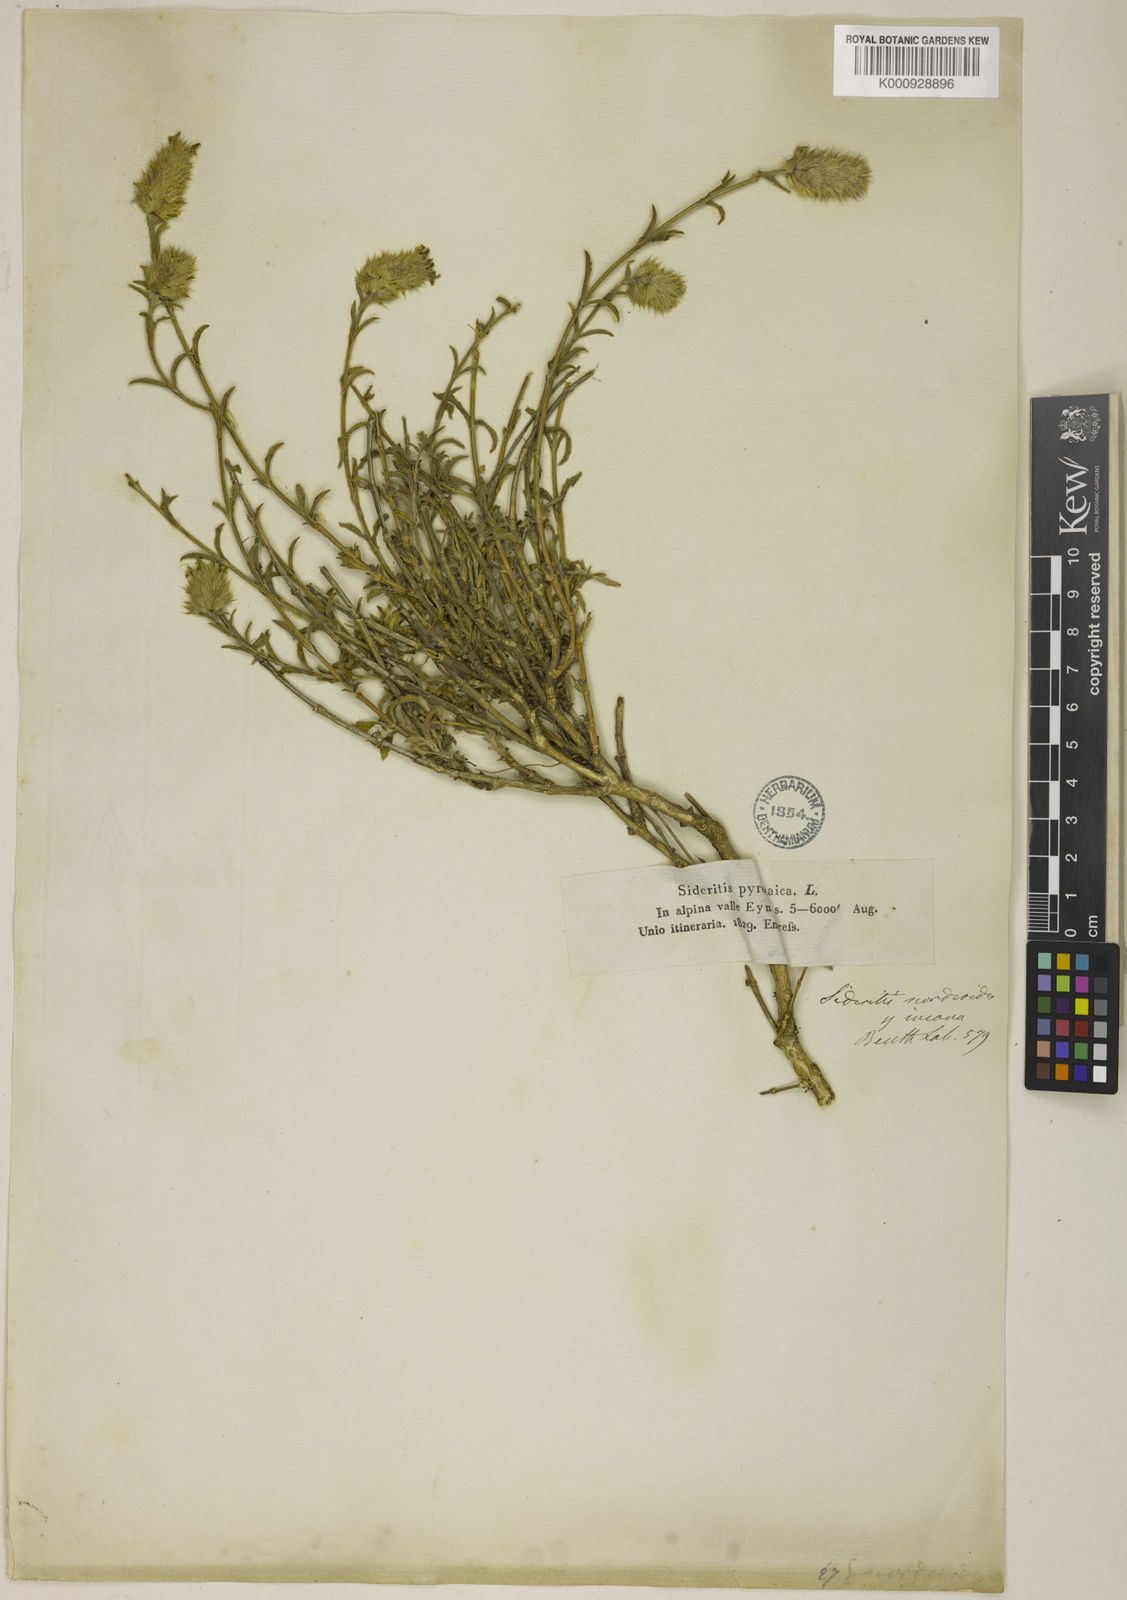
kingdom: Plantae
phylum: Tracheophyta
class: Magnoliopsida
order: Lamiales
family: Lamiaceae
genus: Sideritis
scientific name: Sideritis hyssopifolia
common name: Mountain tea
